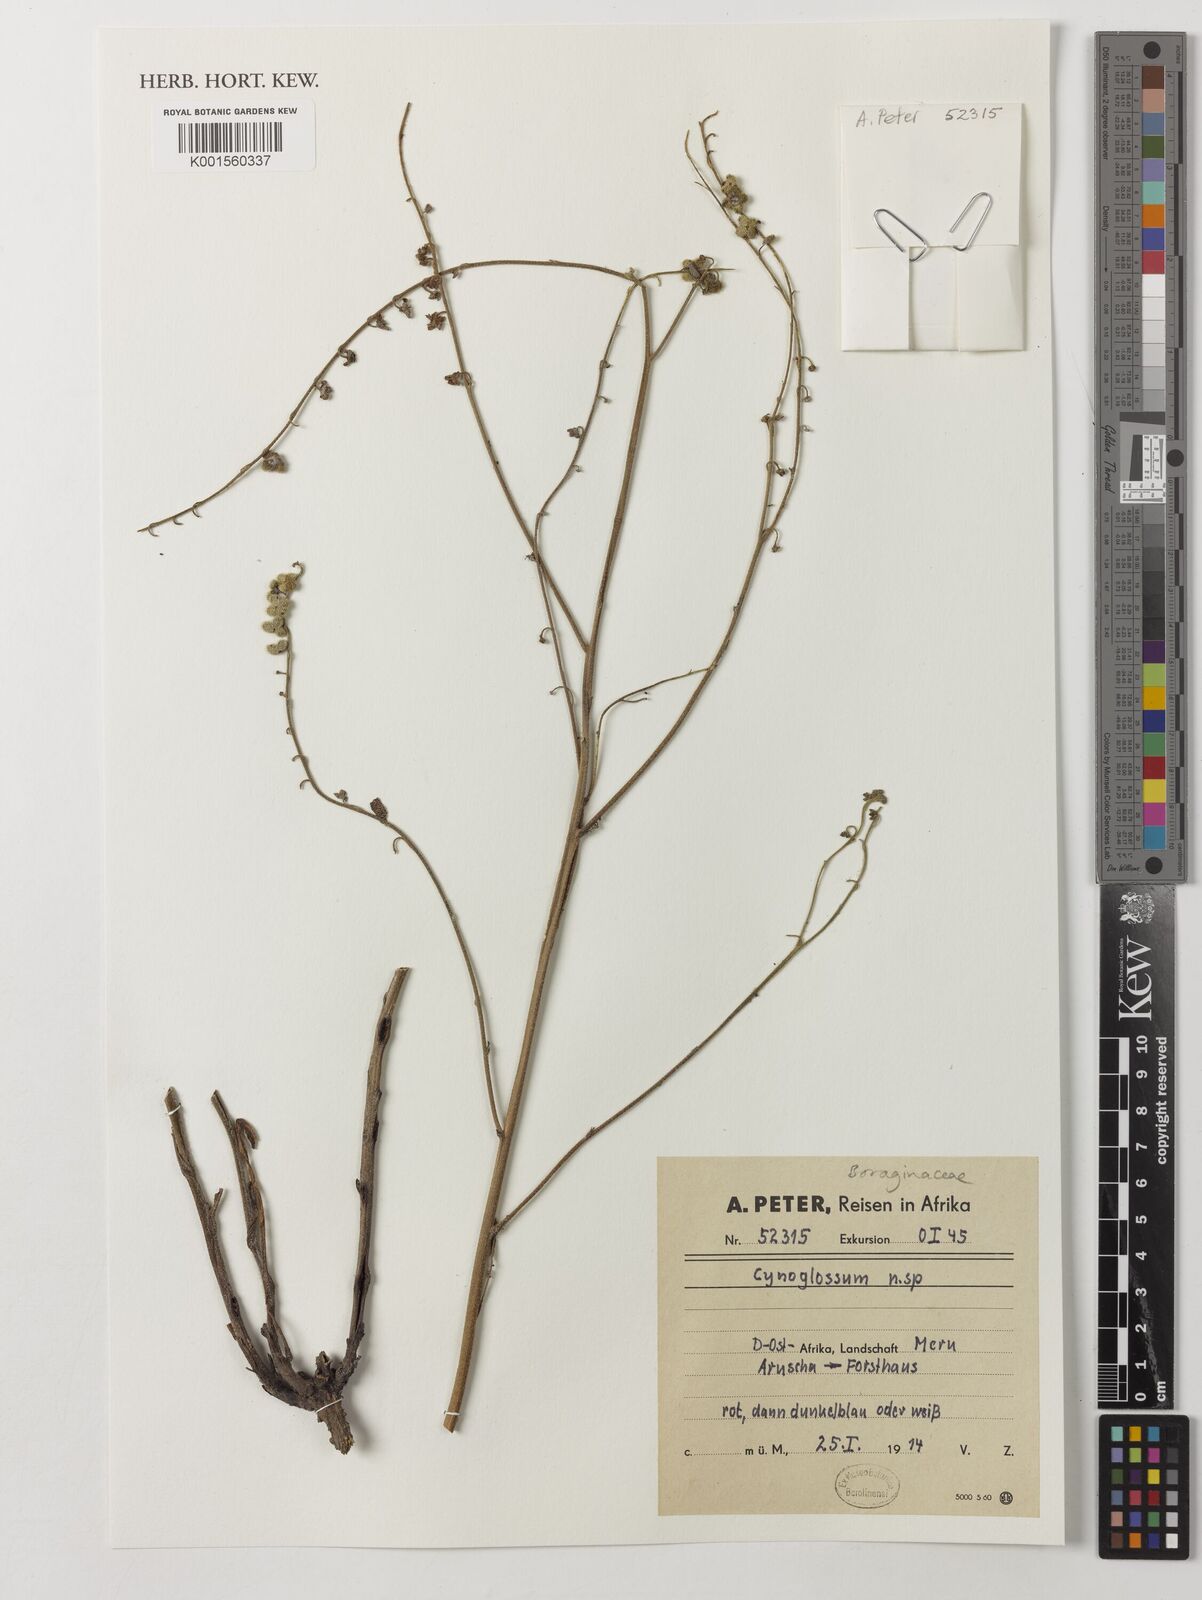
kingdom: Plantae
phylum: Tracheophyta
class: Magnoliopsida
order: Boraginales
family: Boraginaceae
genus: Cynoglossum
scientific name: Cynoglossum
